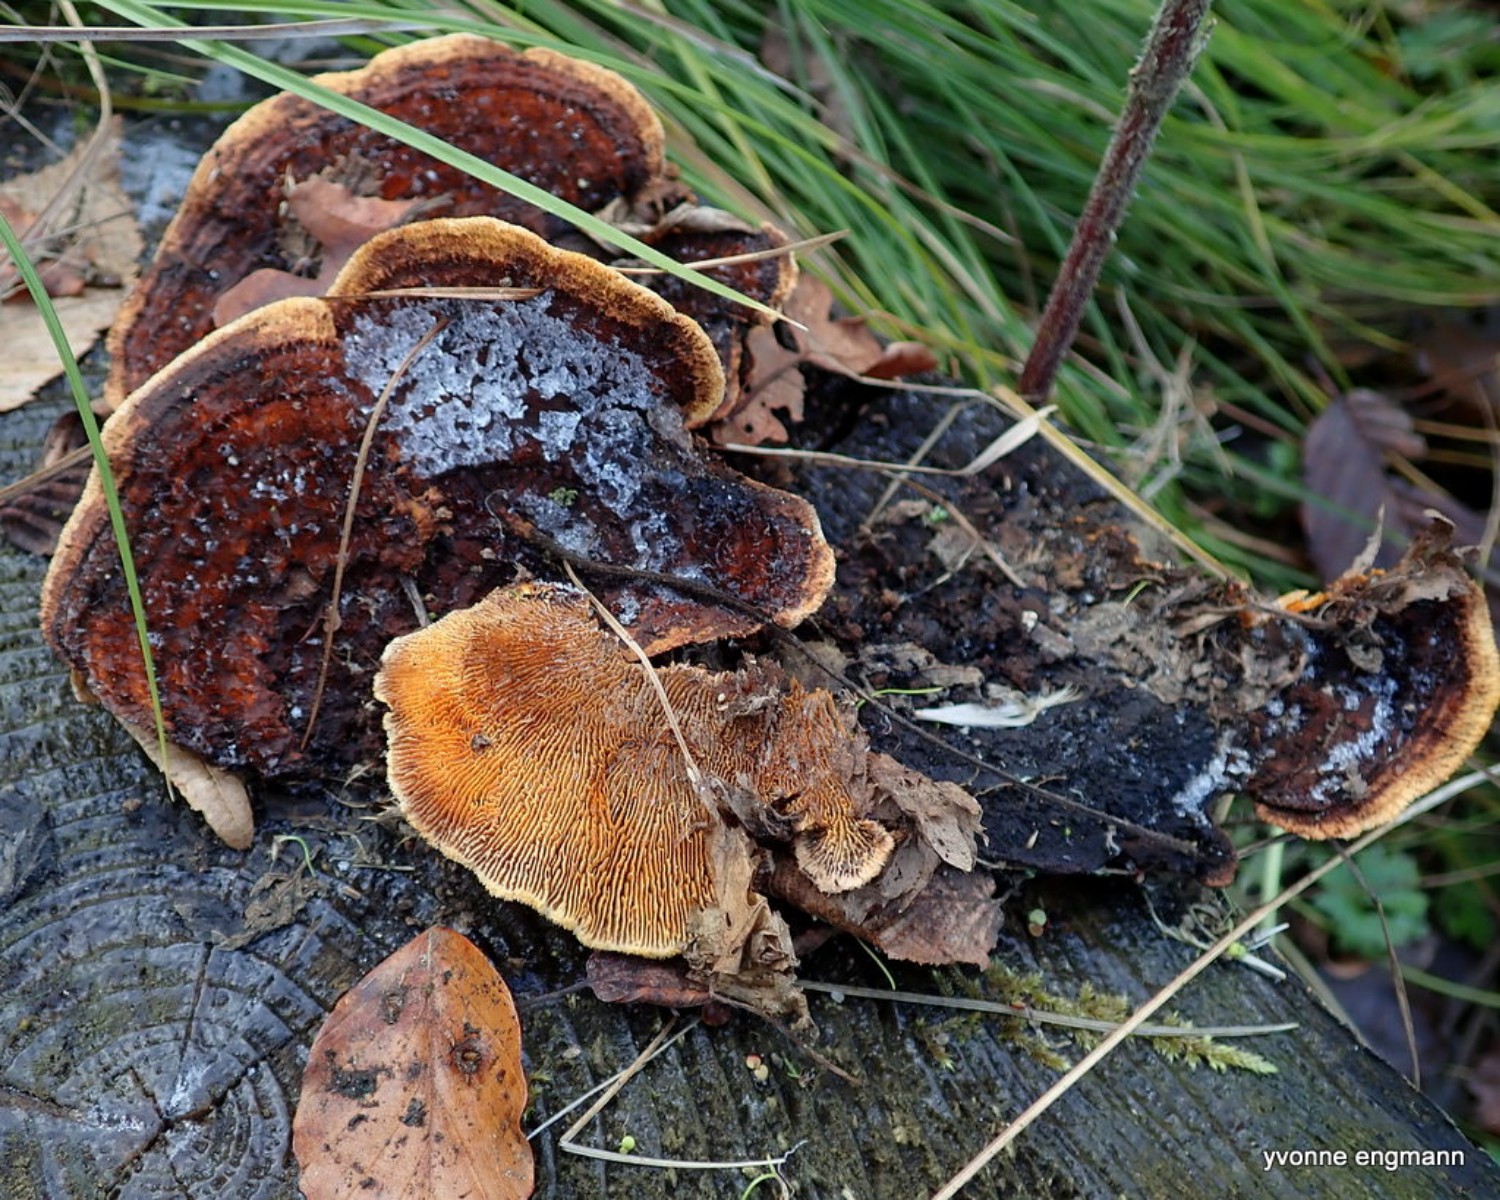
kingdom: Fungi
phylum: Basidiomycota
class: Agaricomycetes
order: Gloeophyllales
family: Gloeophyllaceae
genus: Gloeophyllum
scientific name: Gloeophyllum sepiarium
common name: fyrre-korkhat
